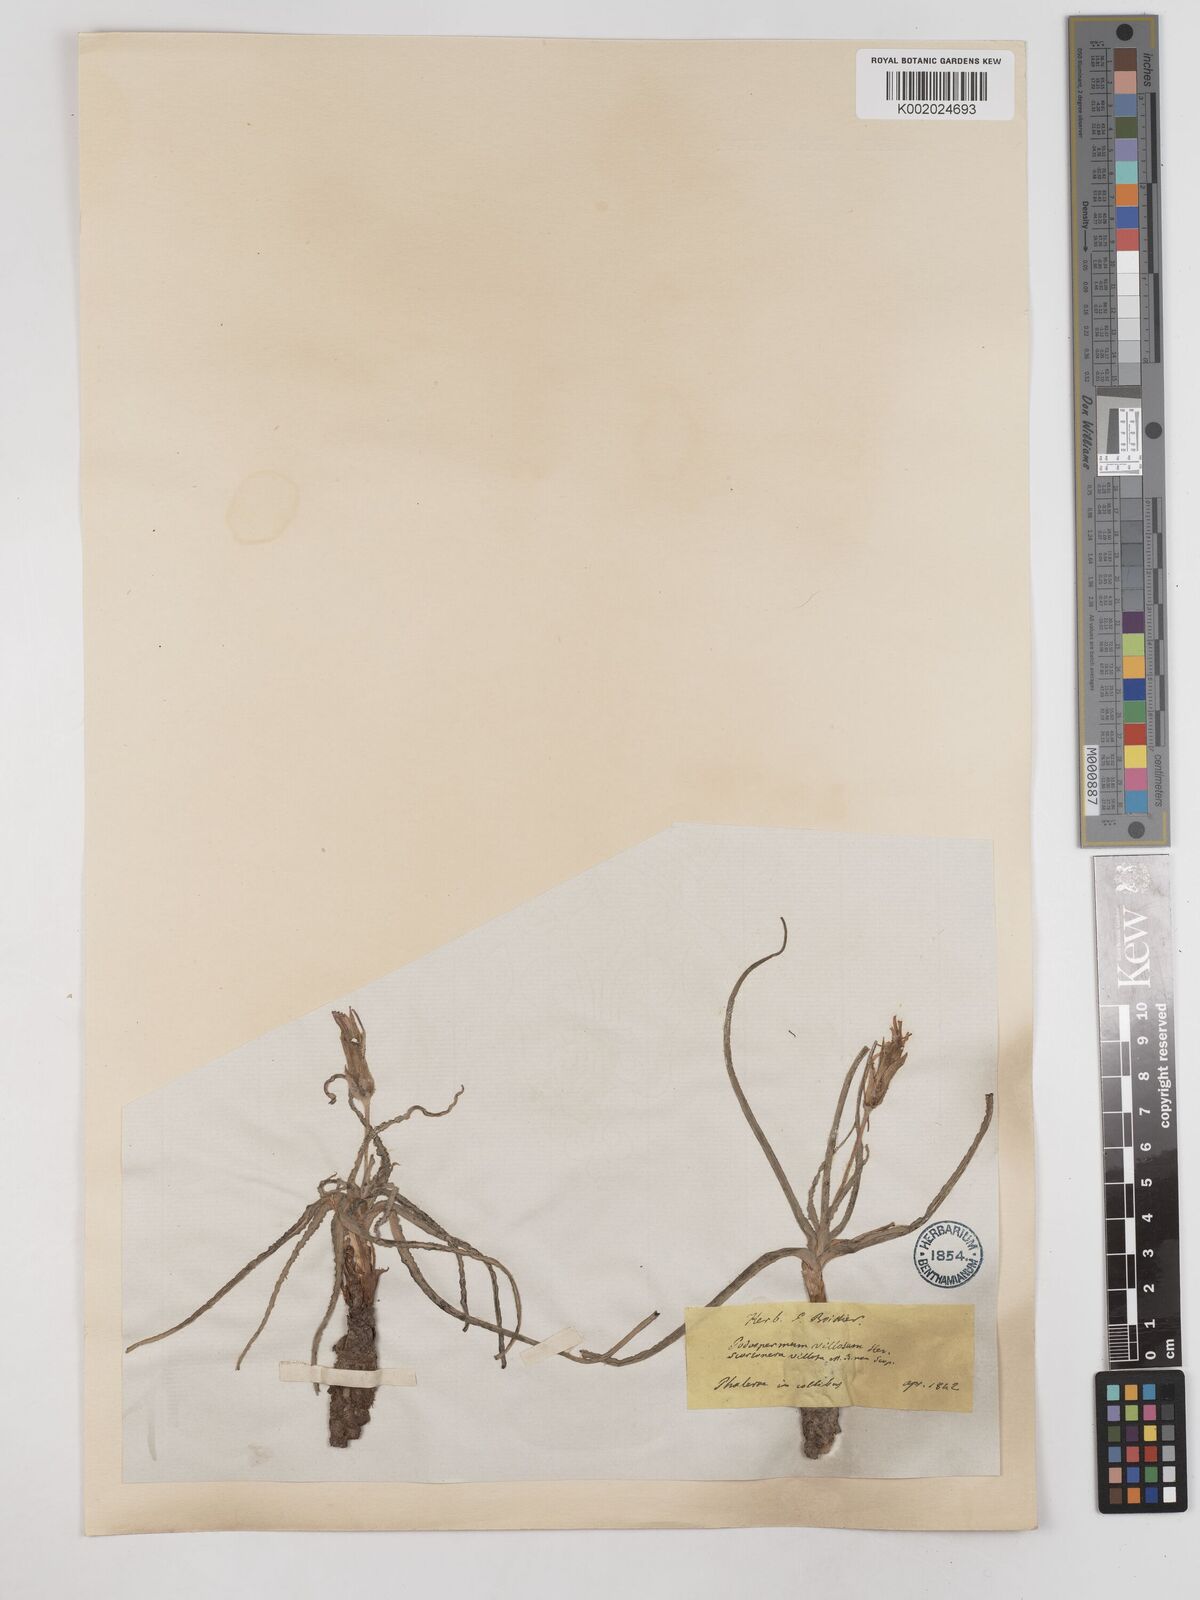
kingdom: Plantae
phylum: Tracheophyta
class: Magnoliopsida
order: Asterales
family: Asteraceae
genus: Candollea
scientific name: Candollea mollis
